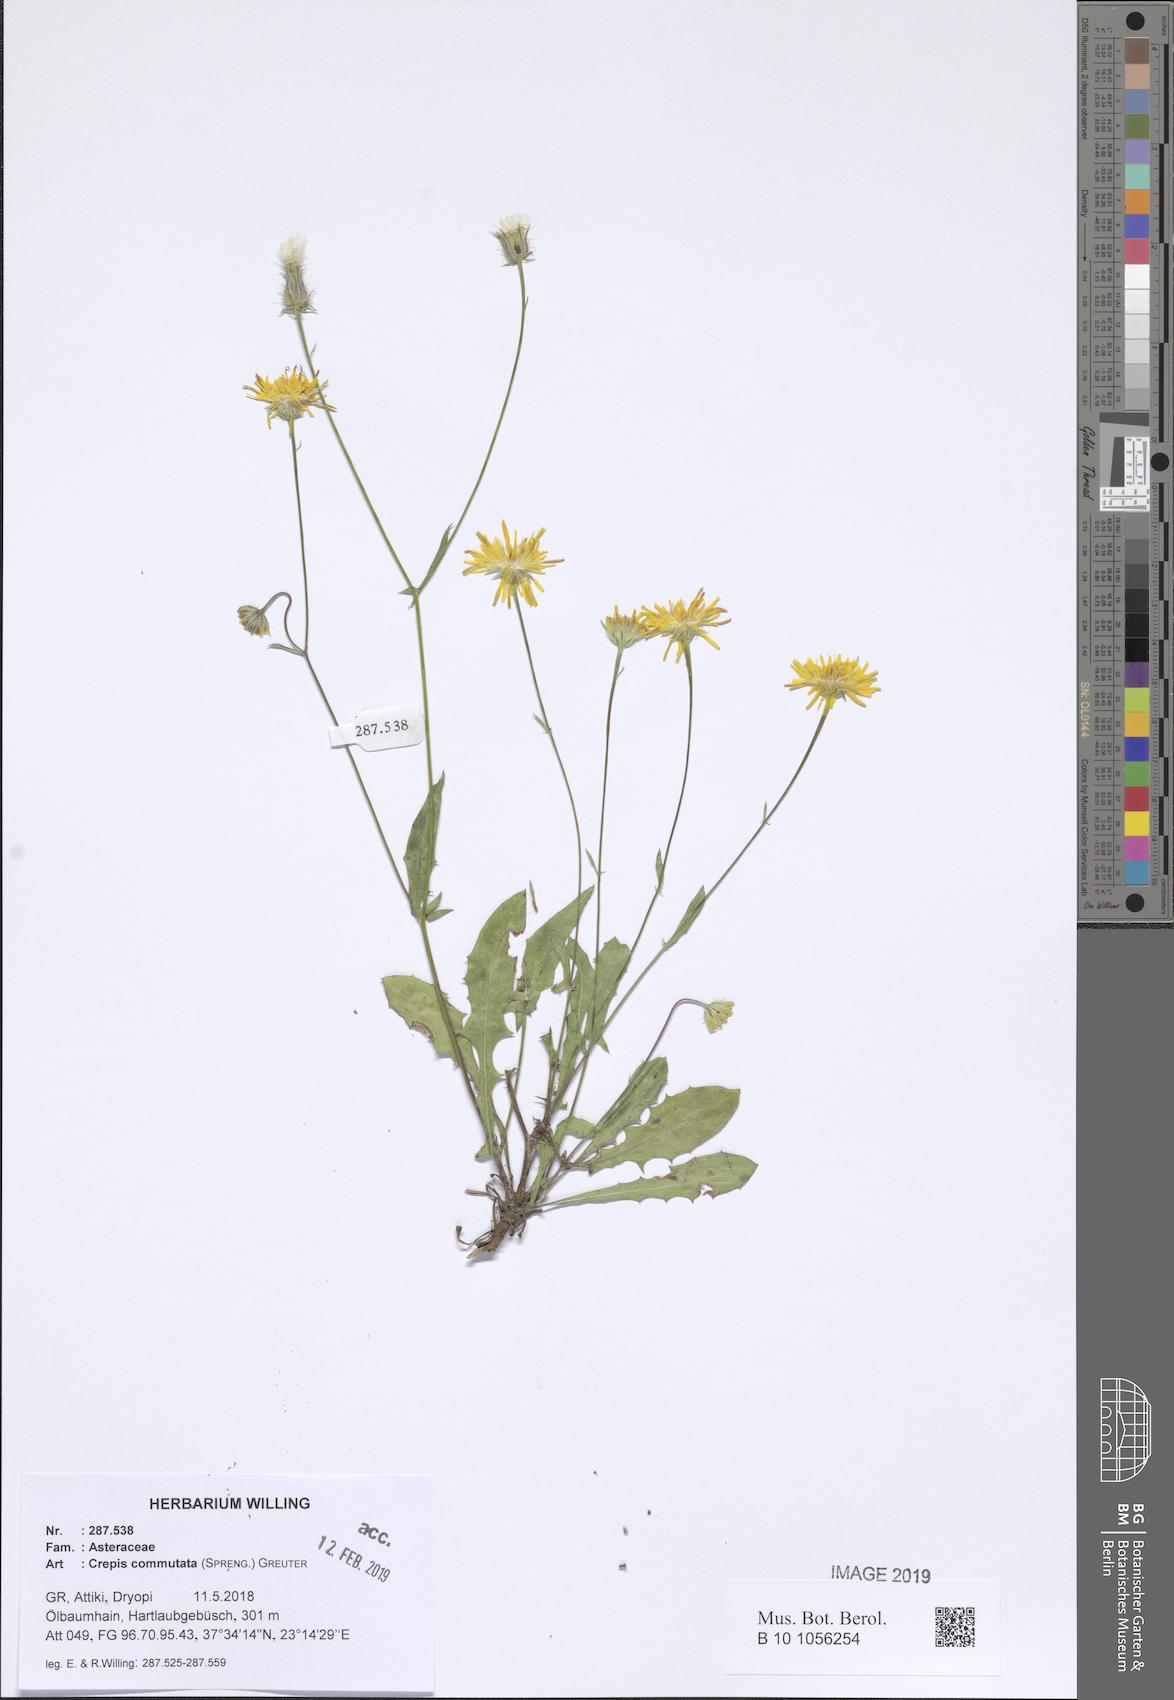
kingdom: Plantae
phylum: Tracheophyta
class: Magnoliopsida
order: Asterales
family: Asteraceae
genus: Crepis
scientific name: Crepis commutata
